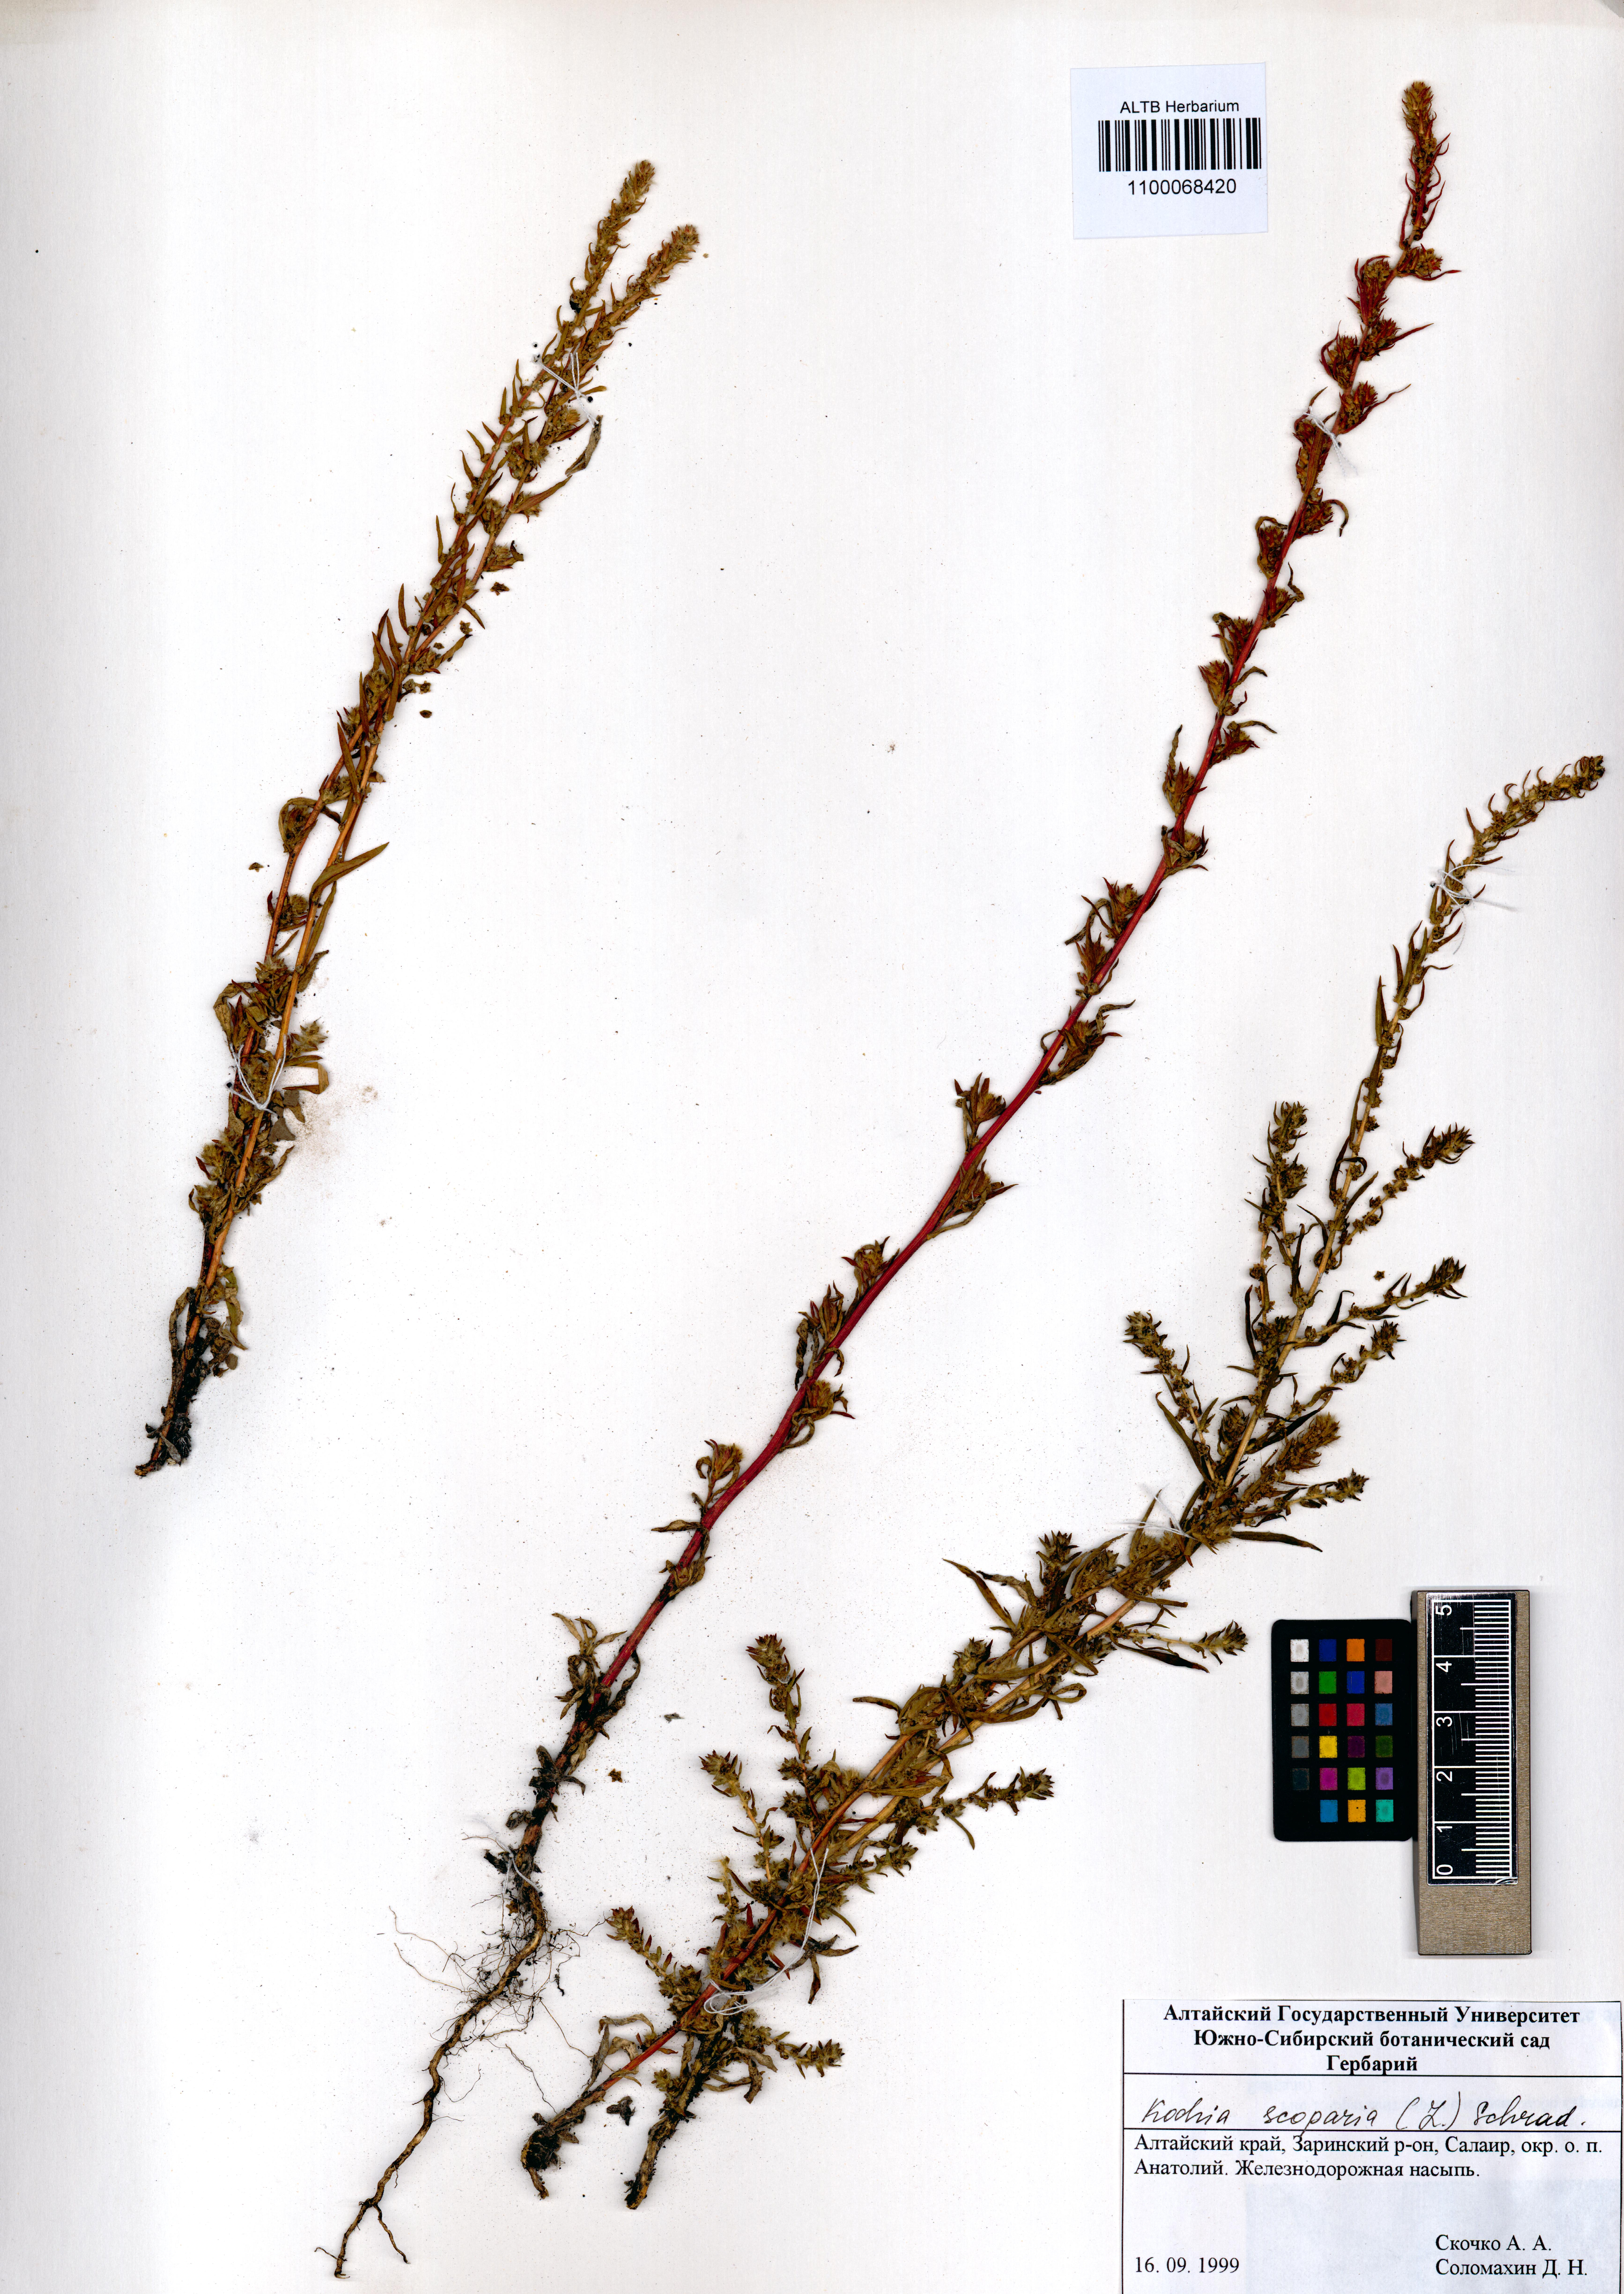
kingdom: Plantae
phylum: Tracheophyta
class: Magnoliopsida
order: Caryophyllales
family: Amaranthaceae
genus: Bassia
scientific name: Bassia scoparia
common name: Belvedere
